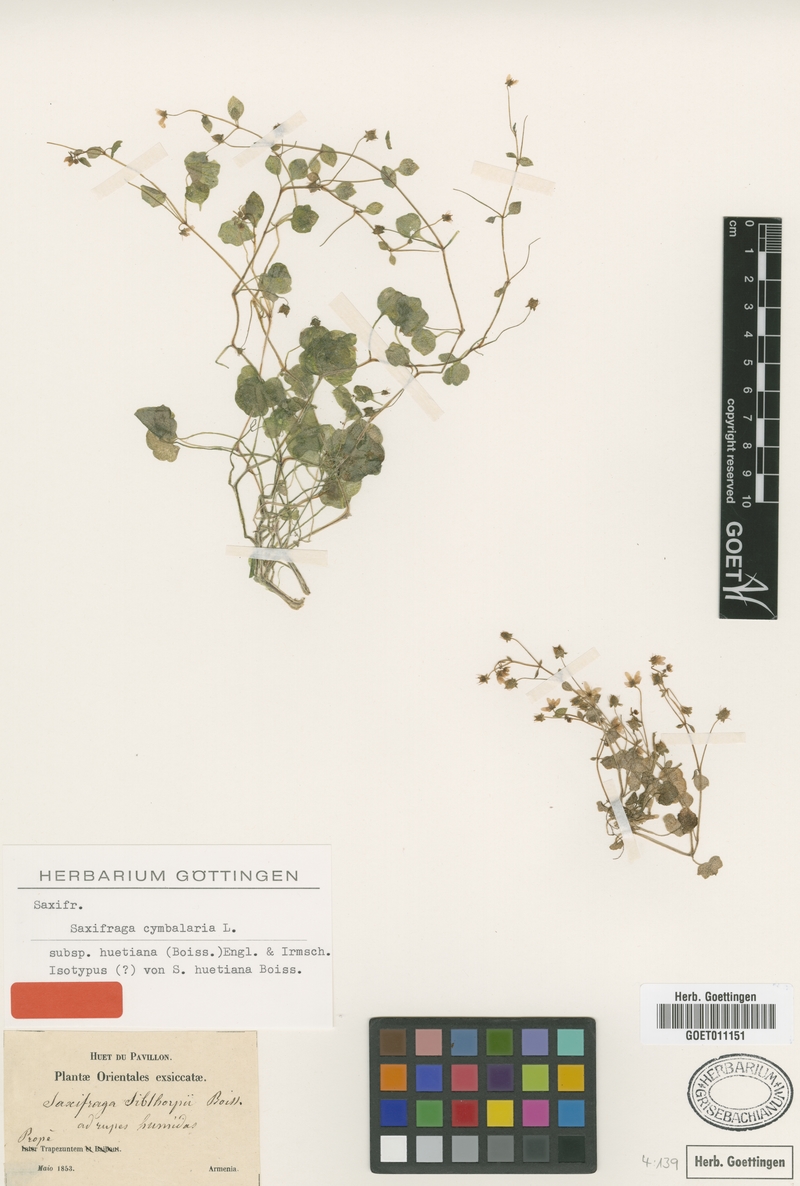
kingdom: Plantae
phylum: Tracheophyta
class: Magnoliopsida
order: Saxifragales
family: Saxifragaceae
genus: Saxifraga
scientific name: Saxifraga cymbalaria
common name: Celandine saxifrage
